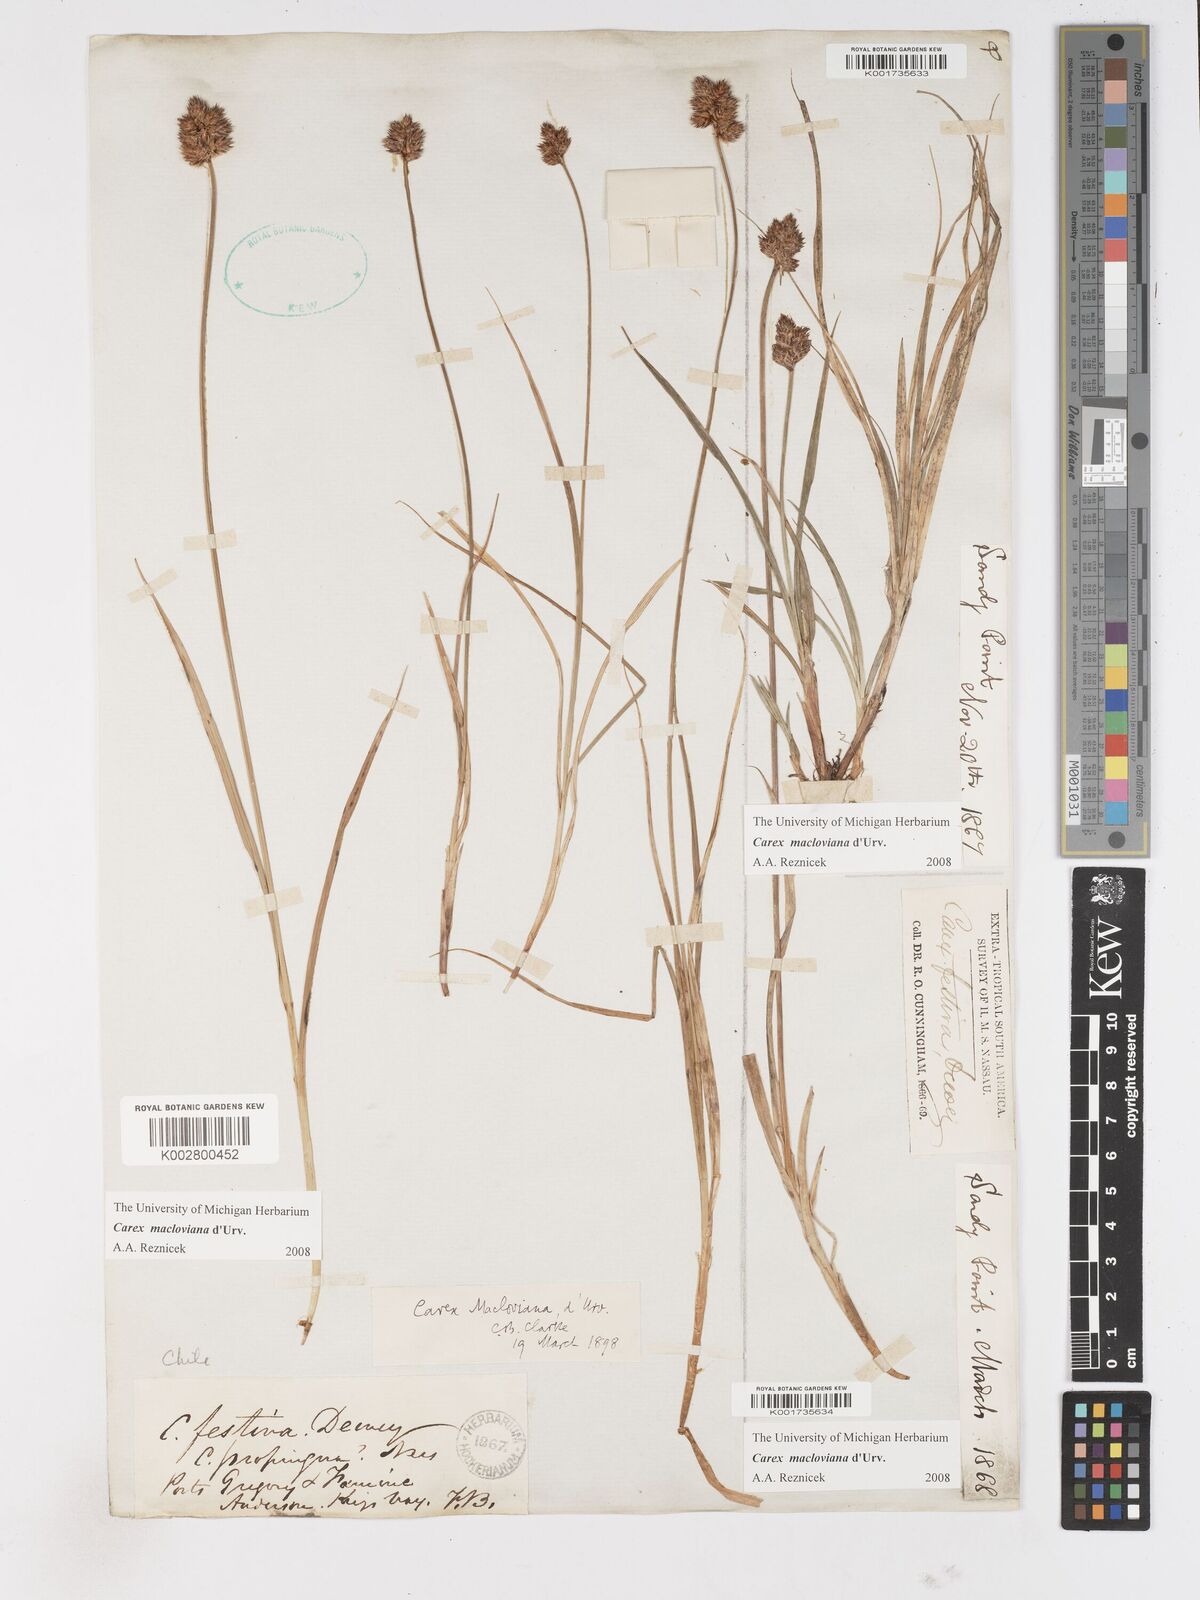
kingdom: Plantae
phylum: Tracheophyta
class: Liliopsida
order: Poales
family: Cyperaceae
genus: Carex
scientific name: Carex macloviana
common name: Falkland island sedge
